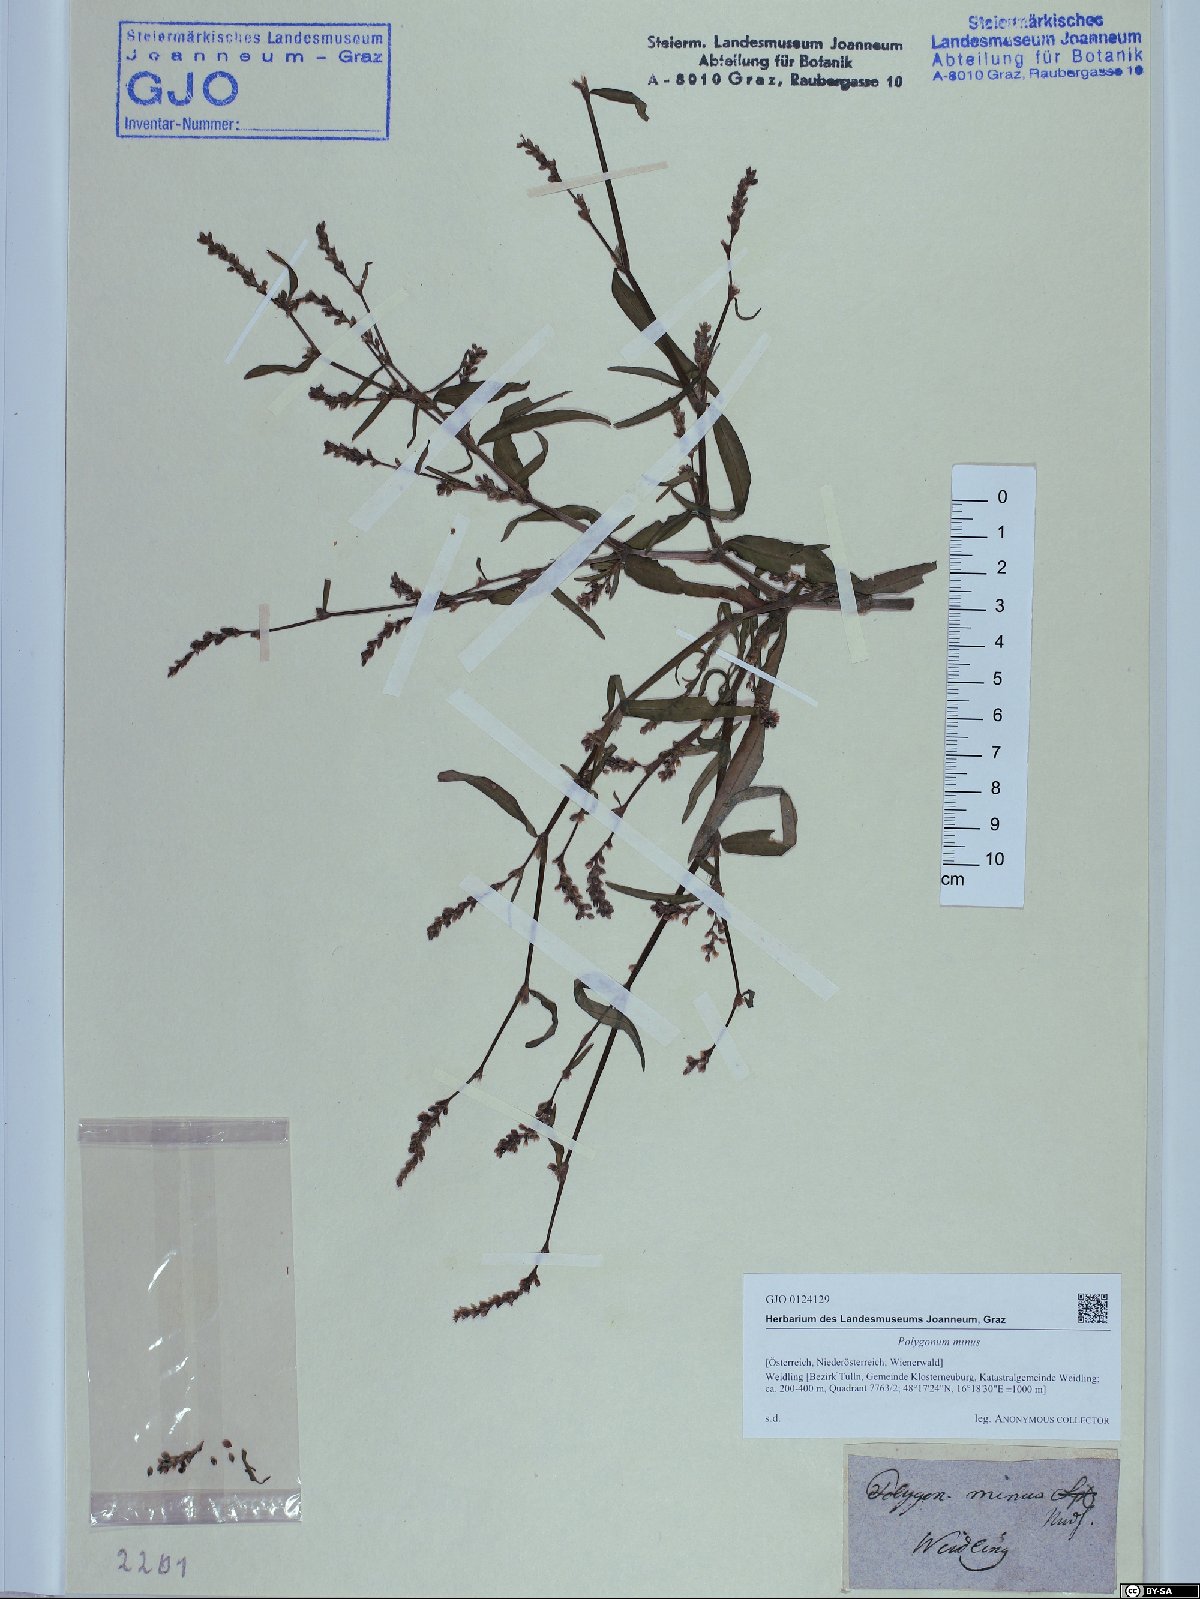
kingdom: Plantae
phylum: Tracheophyta
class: Magnoliopsida
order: Caryophyllales
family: Polygonaceae
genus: Persicaria
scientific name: Persicaria minor
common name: Small water-pepper
